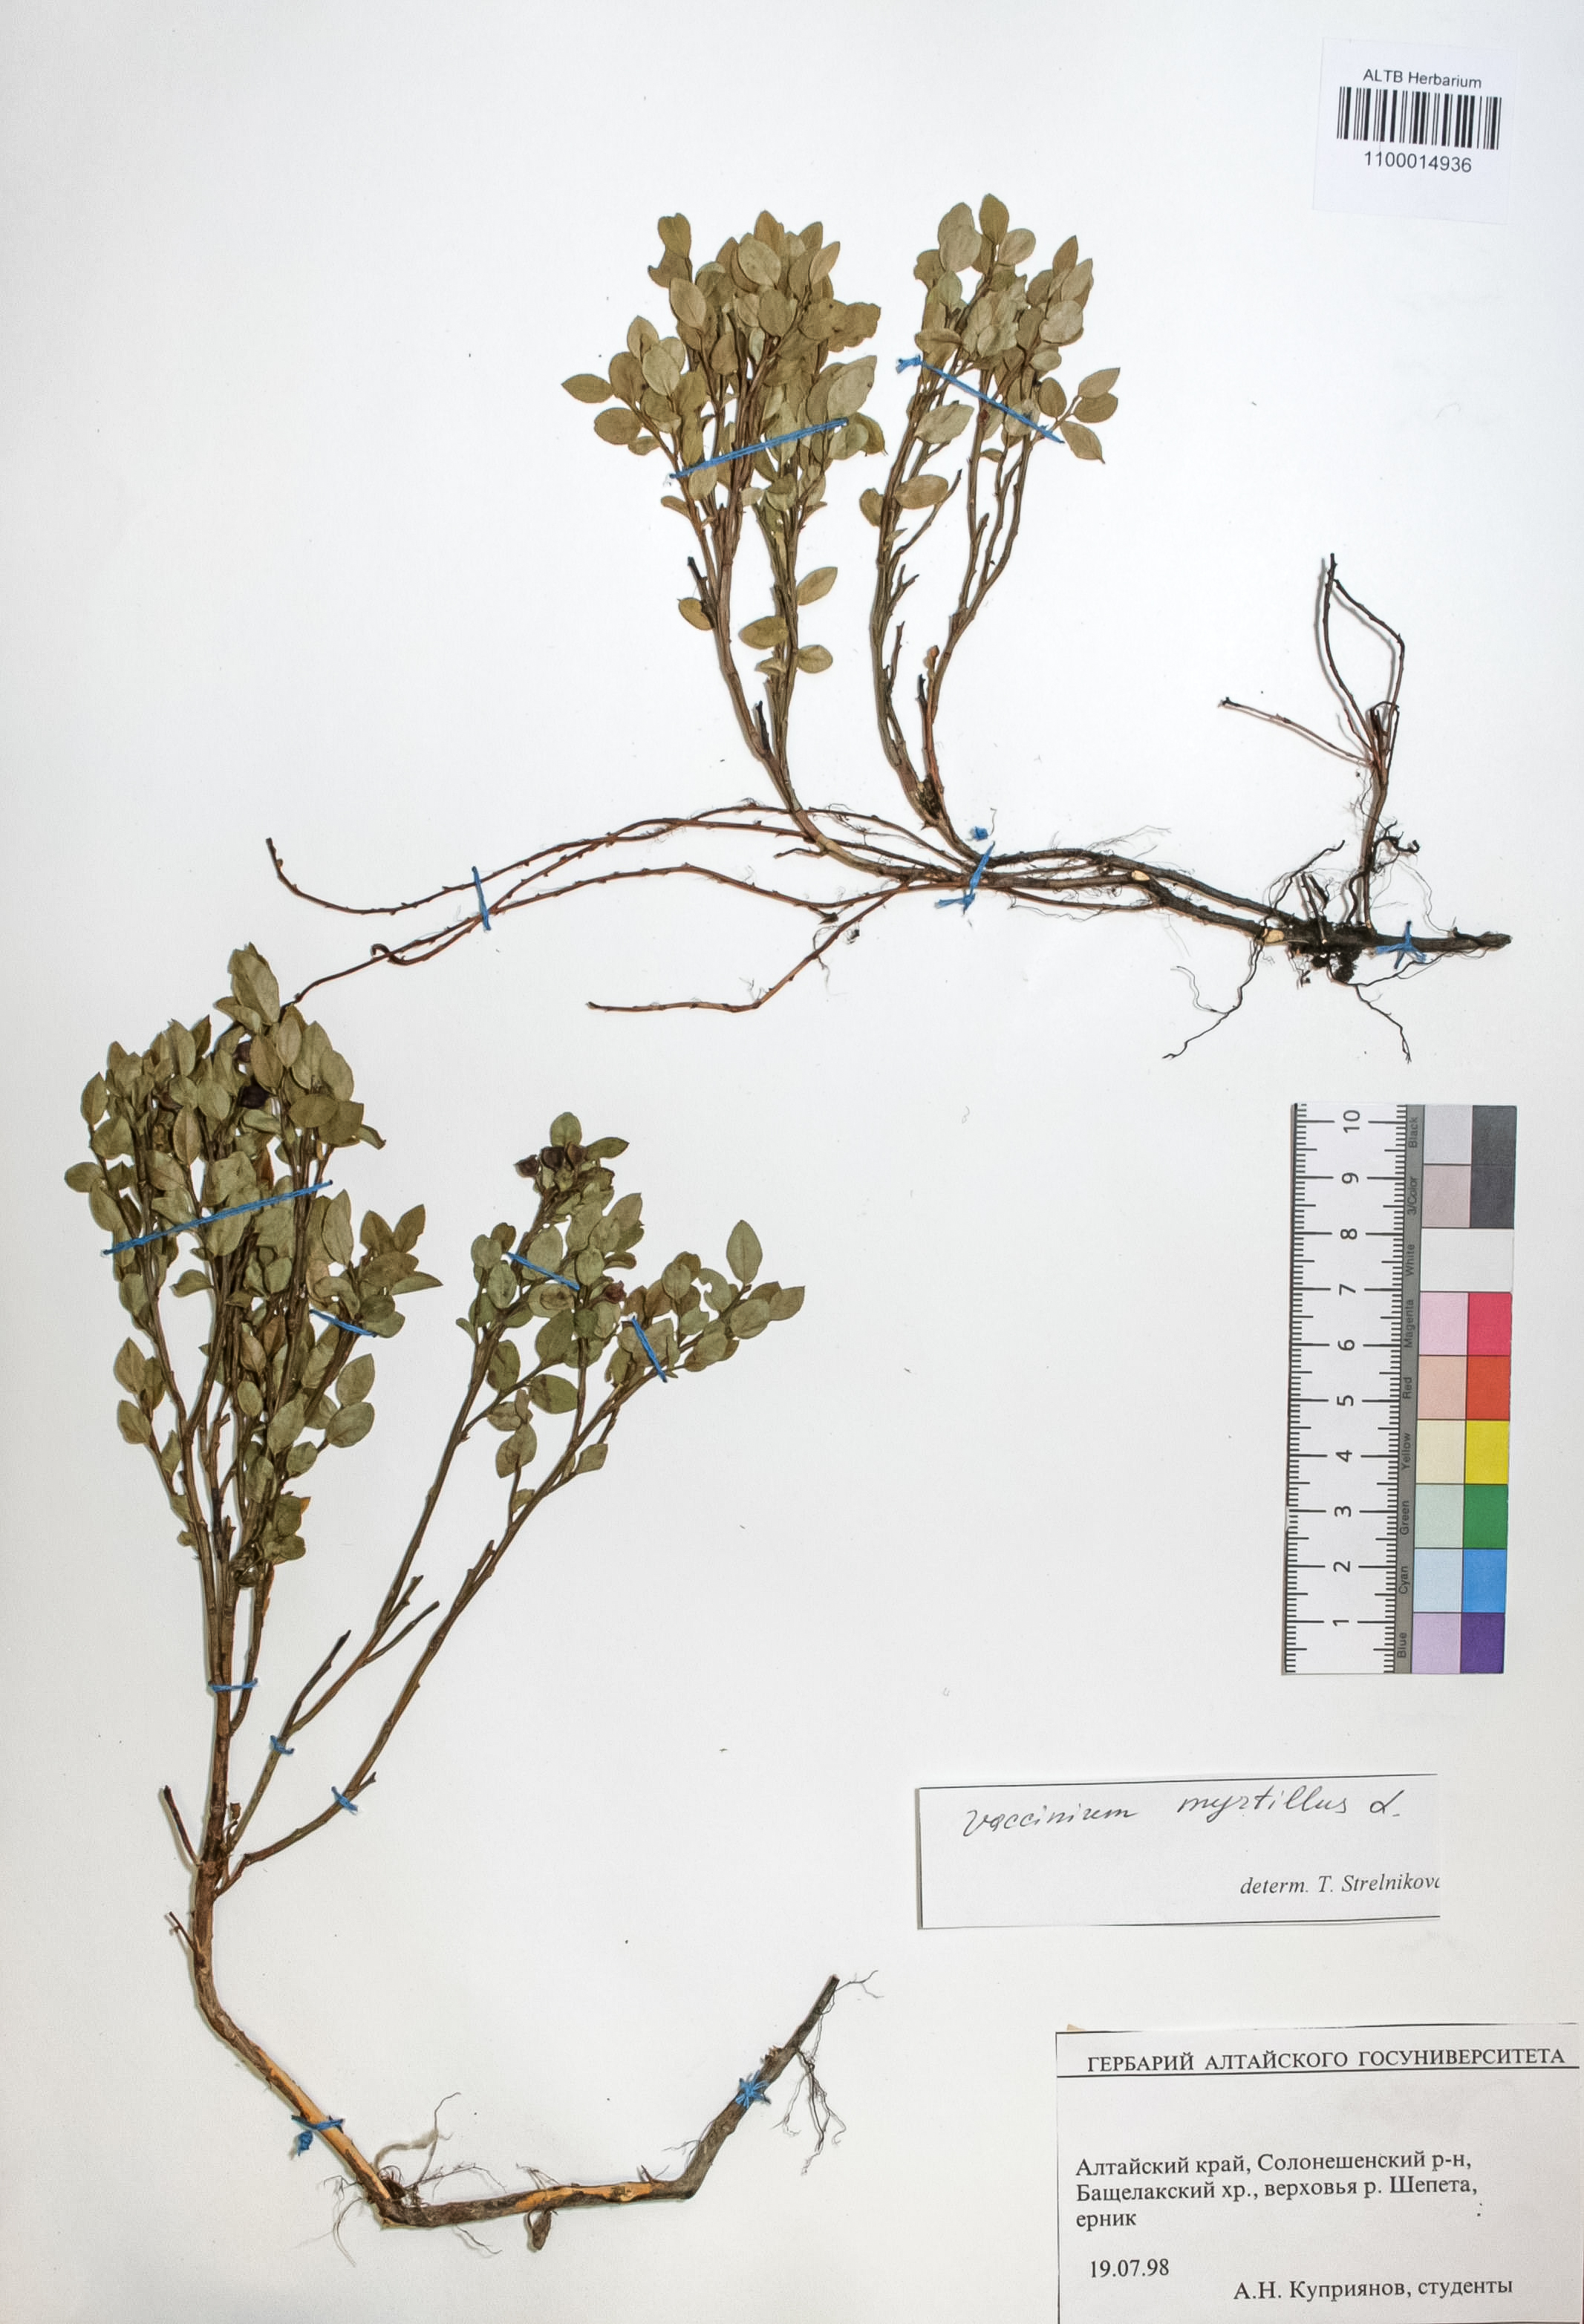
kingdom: Plantae
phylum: Tracheophyta
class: Magnoliopsida
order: Ericales
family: Ericaceae
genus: Vaccinium
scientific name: Vaccinium myrtillus
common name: Bilberry
